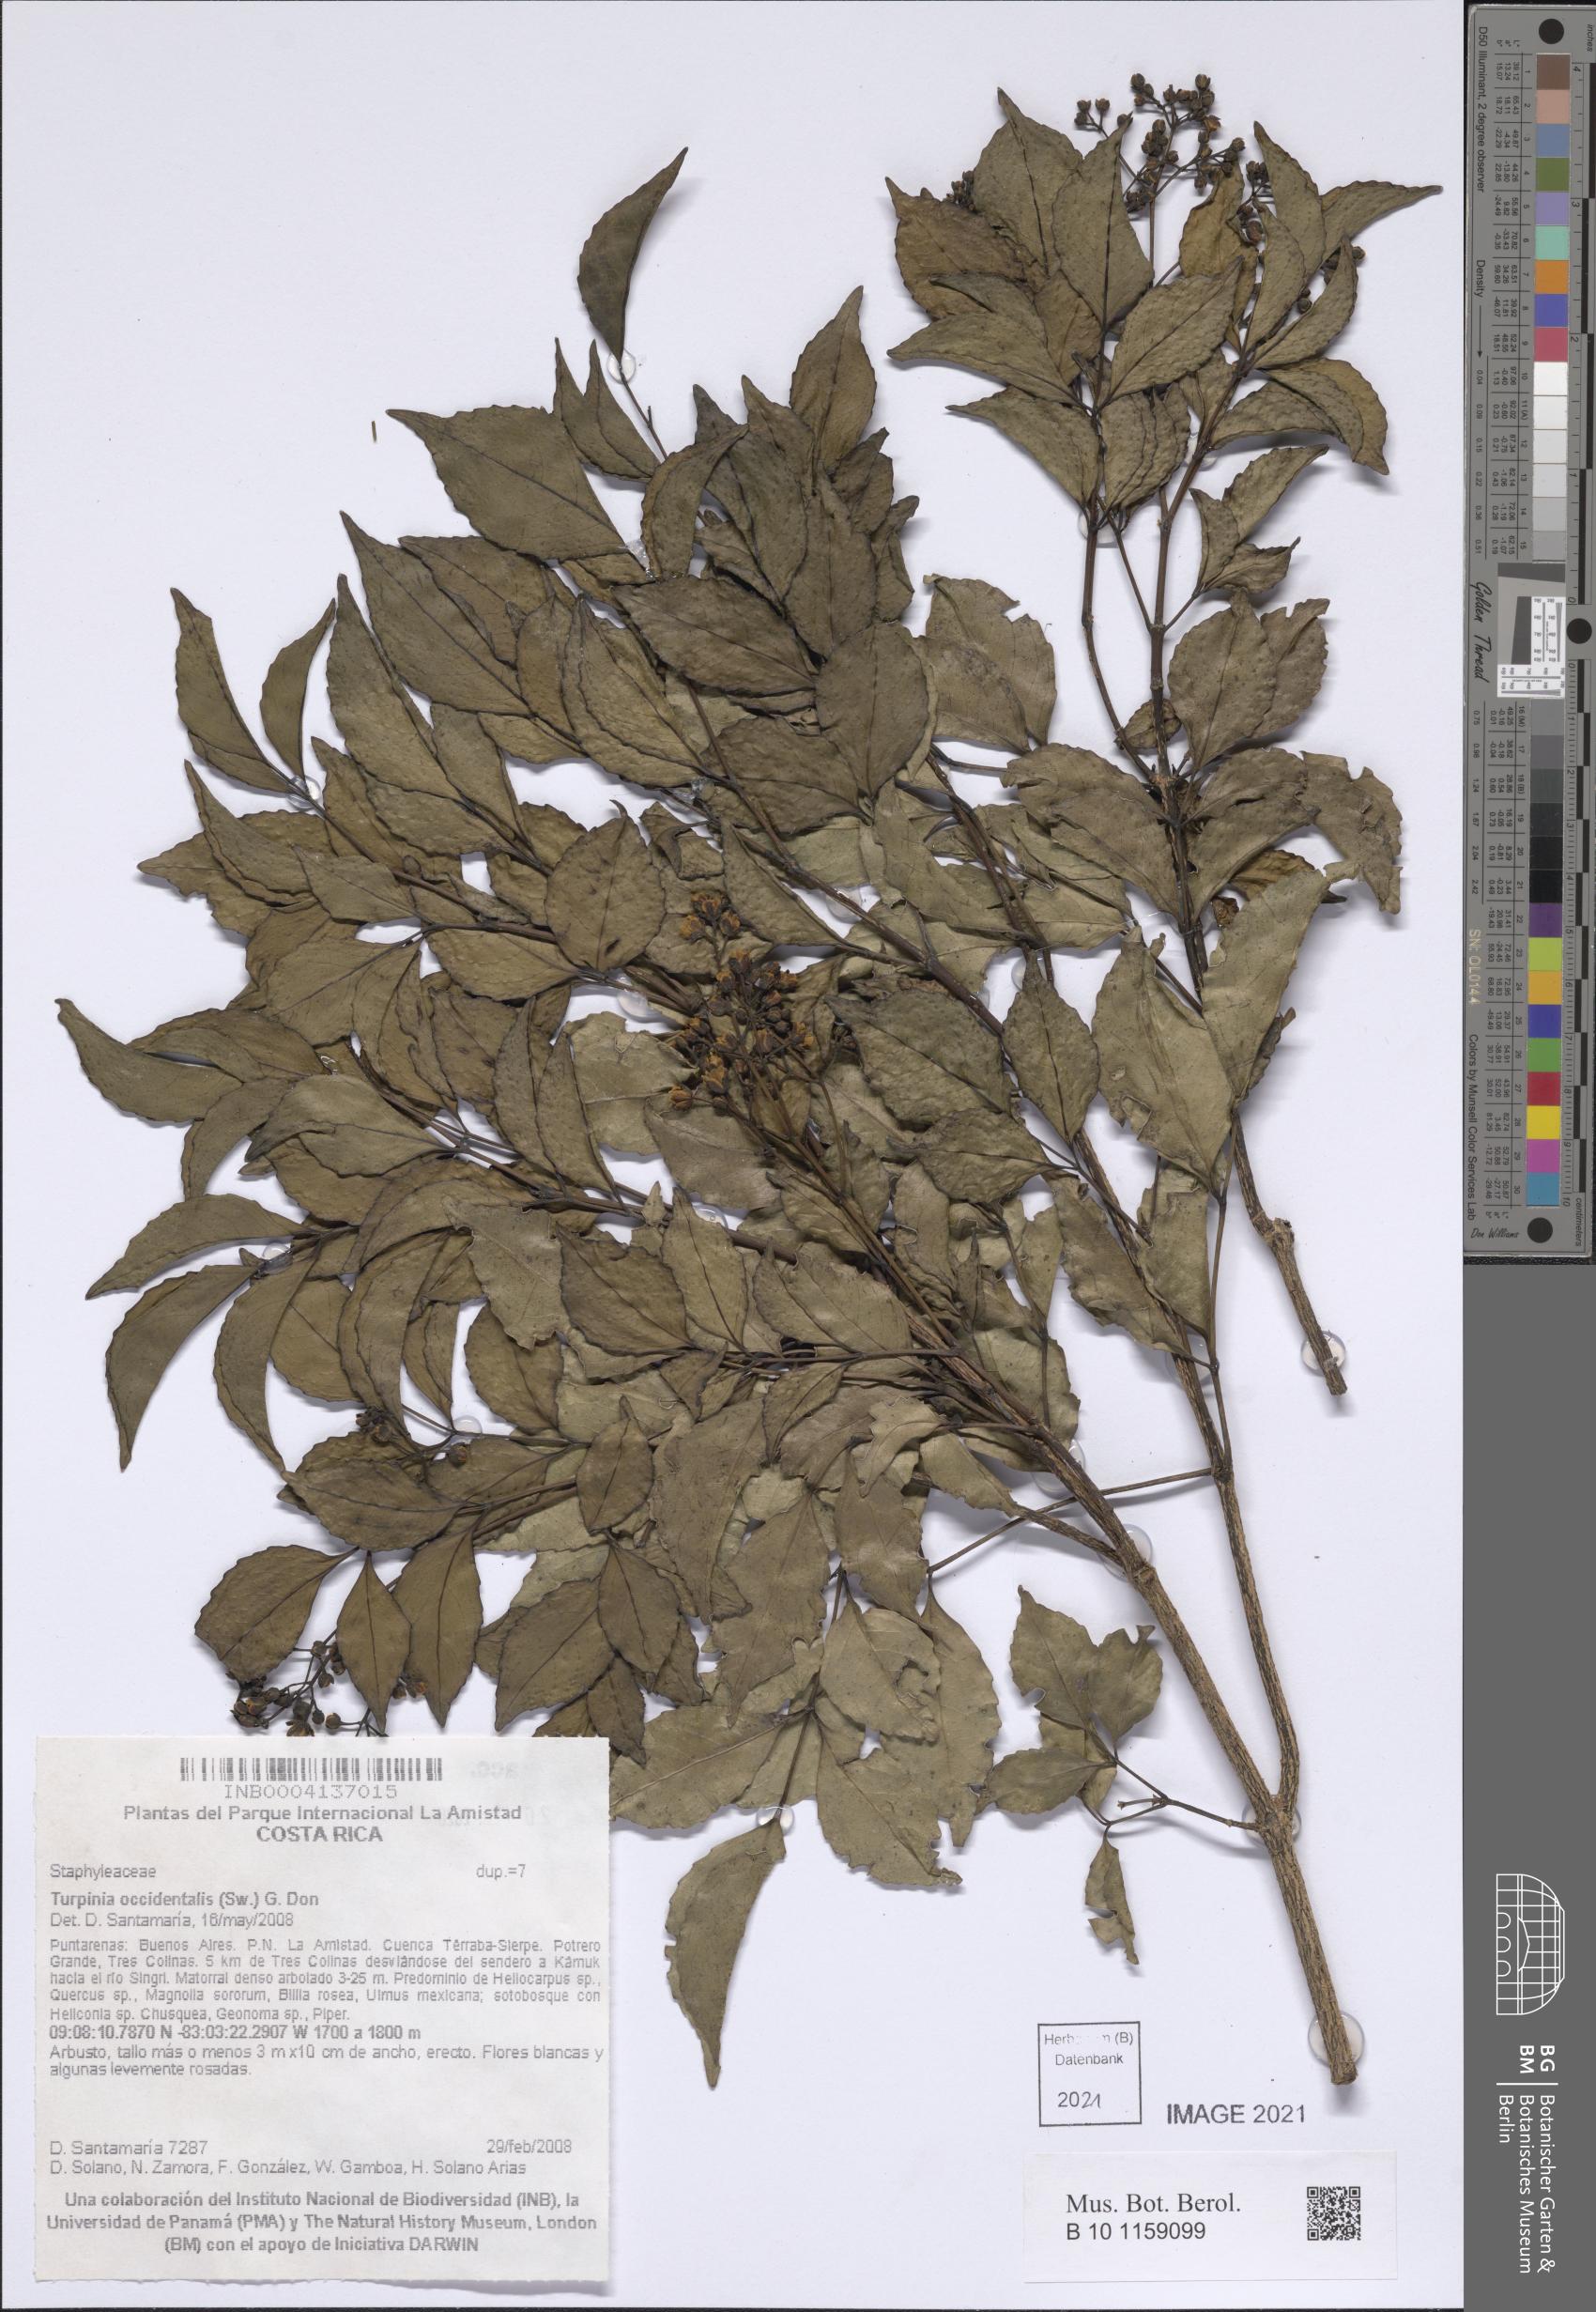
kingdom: Plantae
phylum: Tracheophyta
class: Magnoliopsida
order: Crossosomatales
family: Staphyleaceae
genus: Turpinia
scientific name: Turpinia occidentalis
